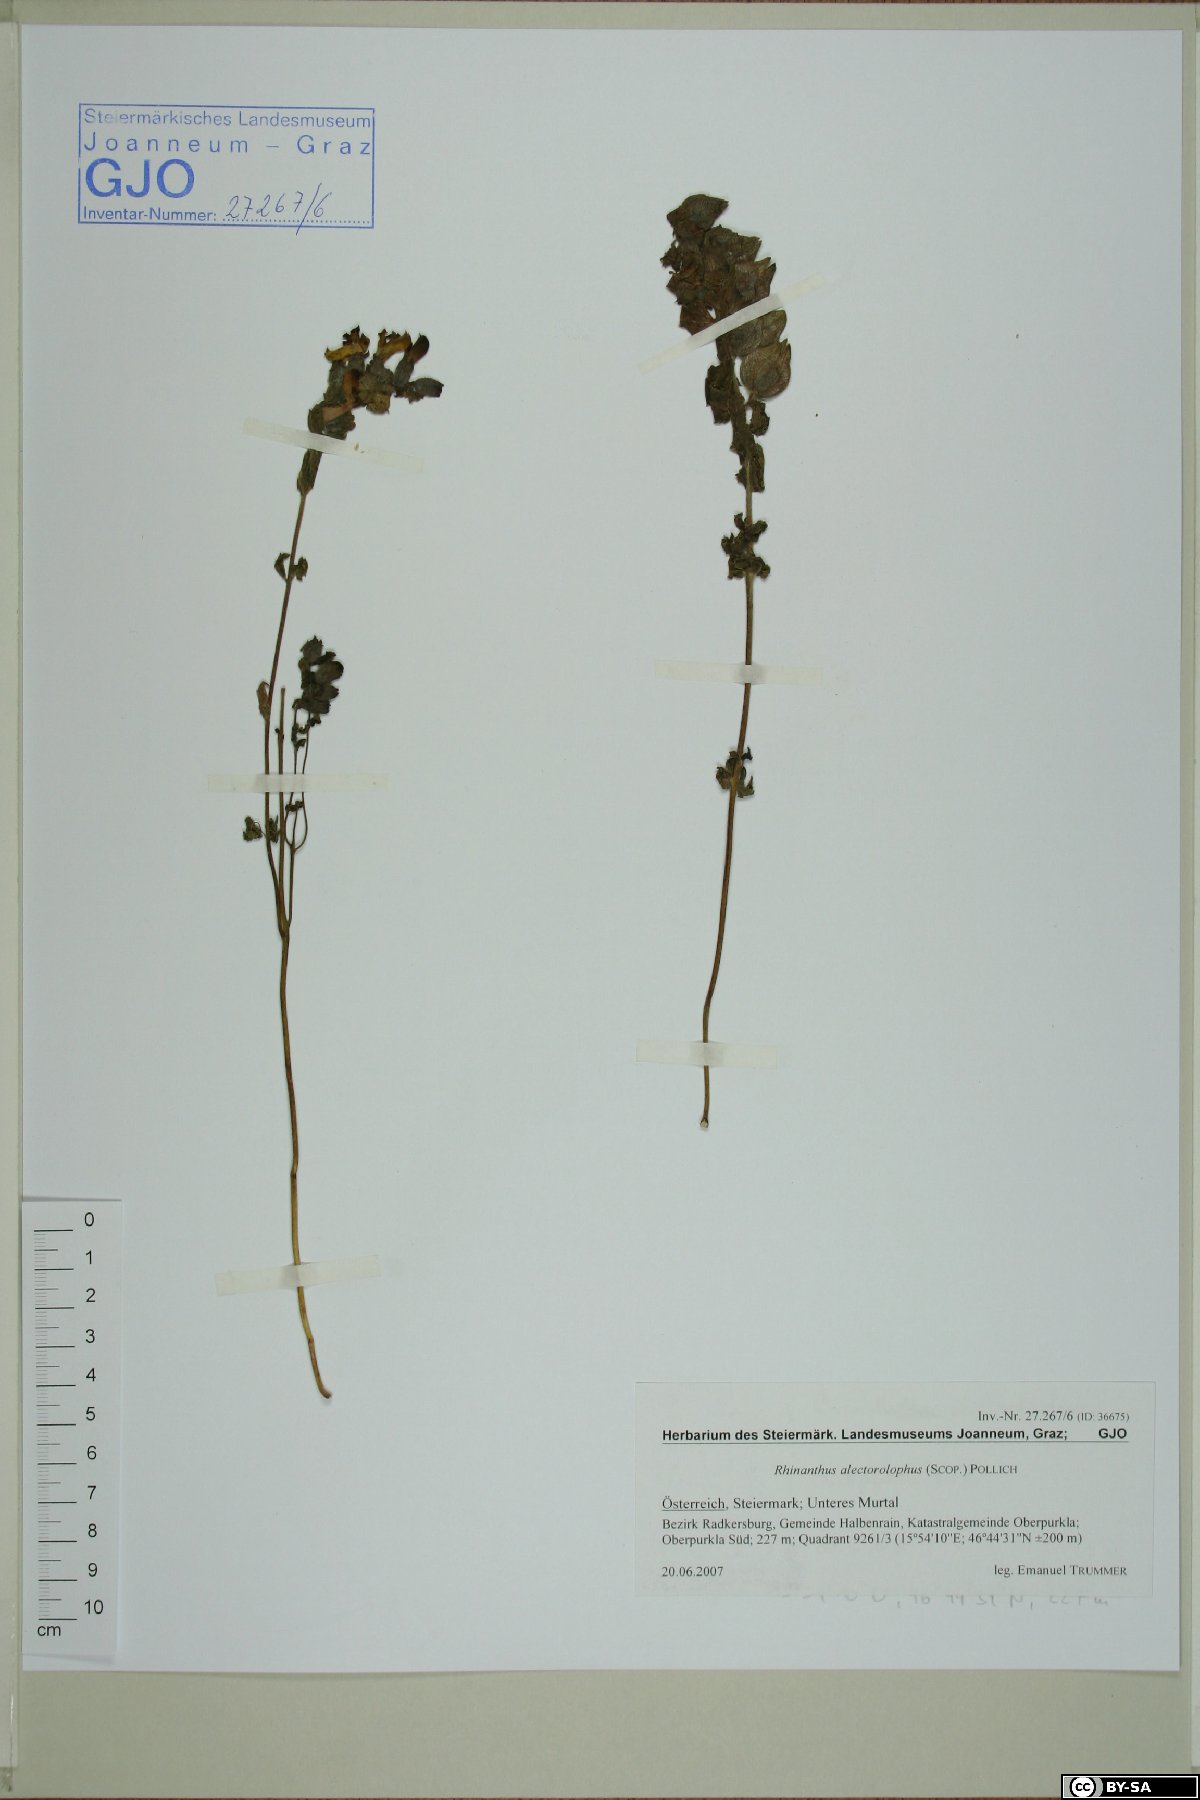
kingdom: Plantae
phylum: Tracheophyta
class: Magnoliopsida
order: Lamiales
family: Orobanchaceae
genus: Rhinanthus
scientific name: Rhinanthus alectorolophus
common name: Greater yellow-rattle
